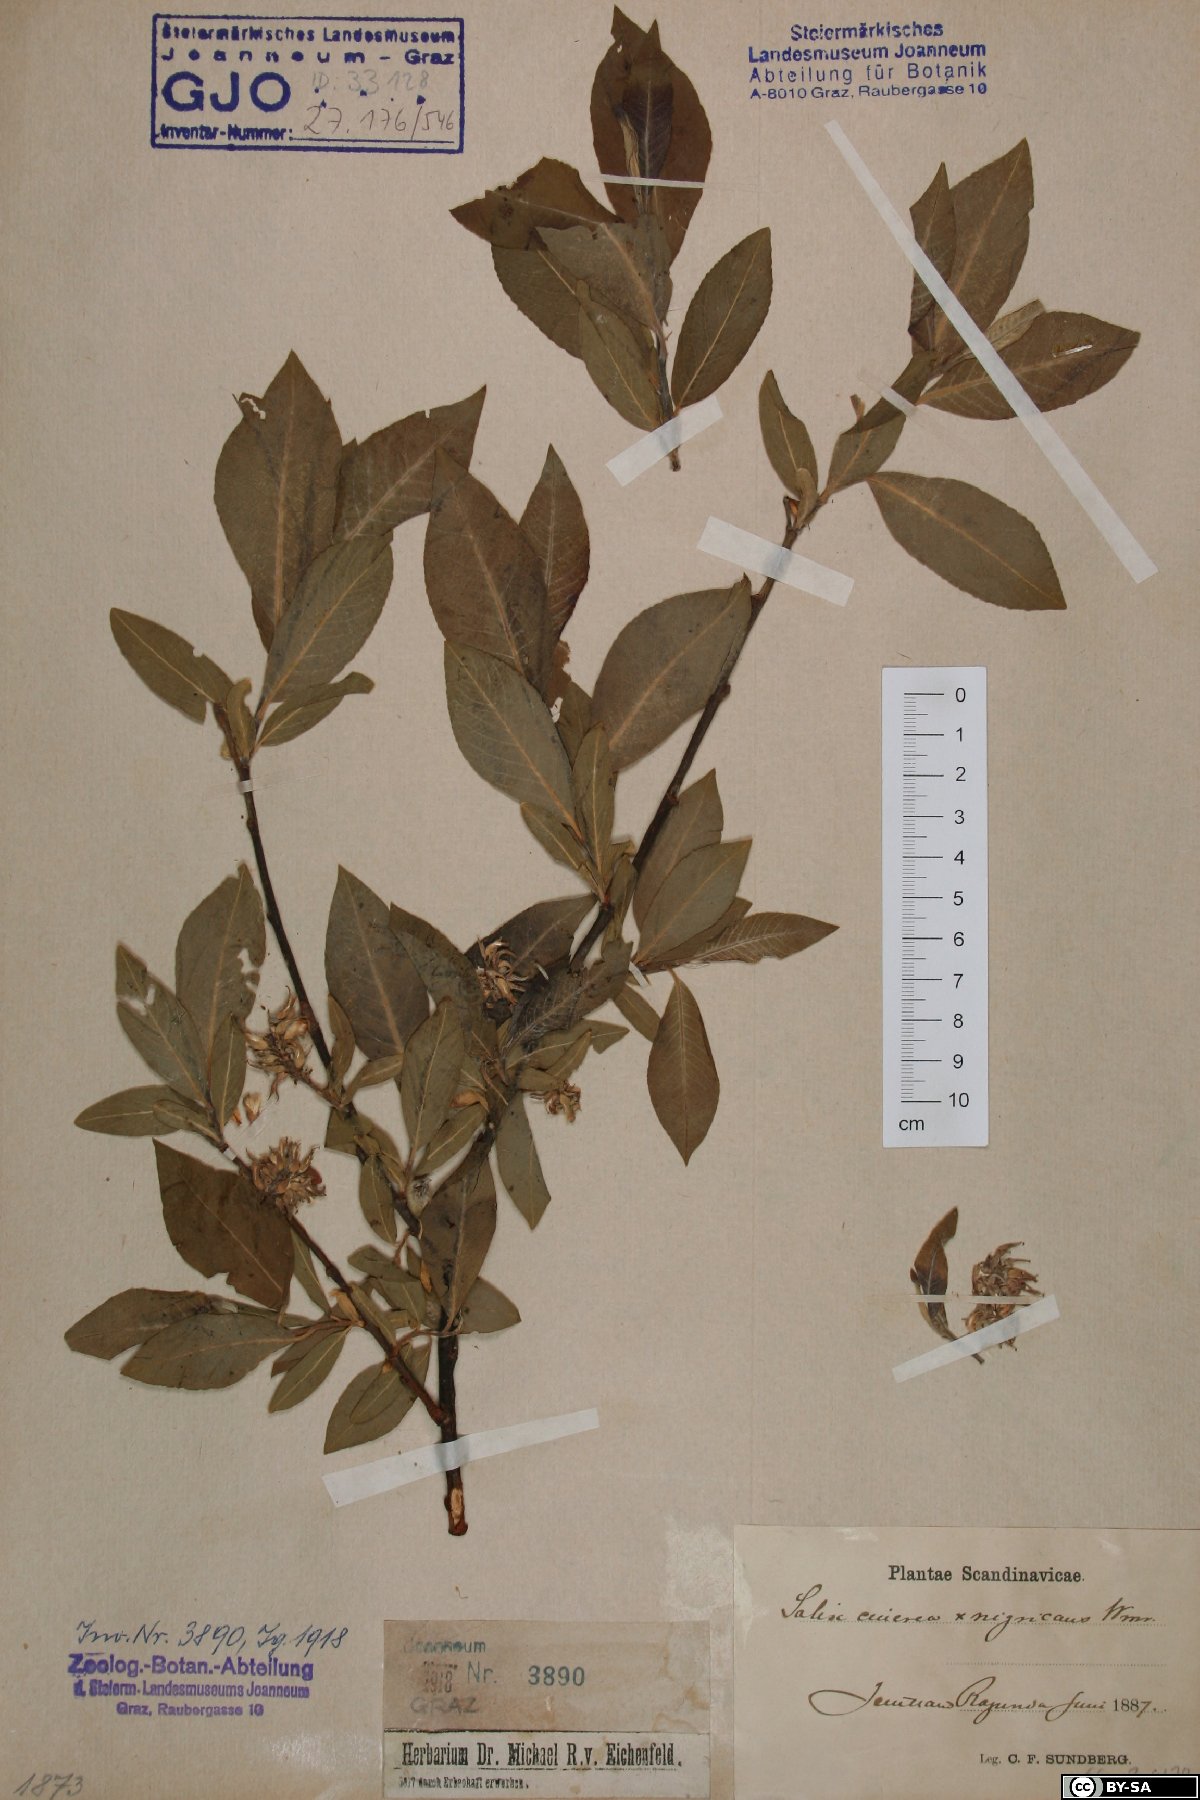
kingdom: Plantae
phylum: Tracheophyta
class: Magnoliopsida
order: Malpighiales
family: Salicaceae
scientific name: Salicaceae
